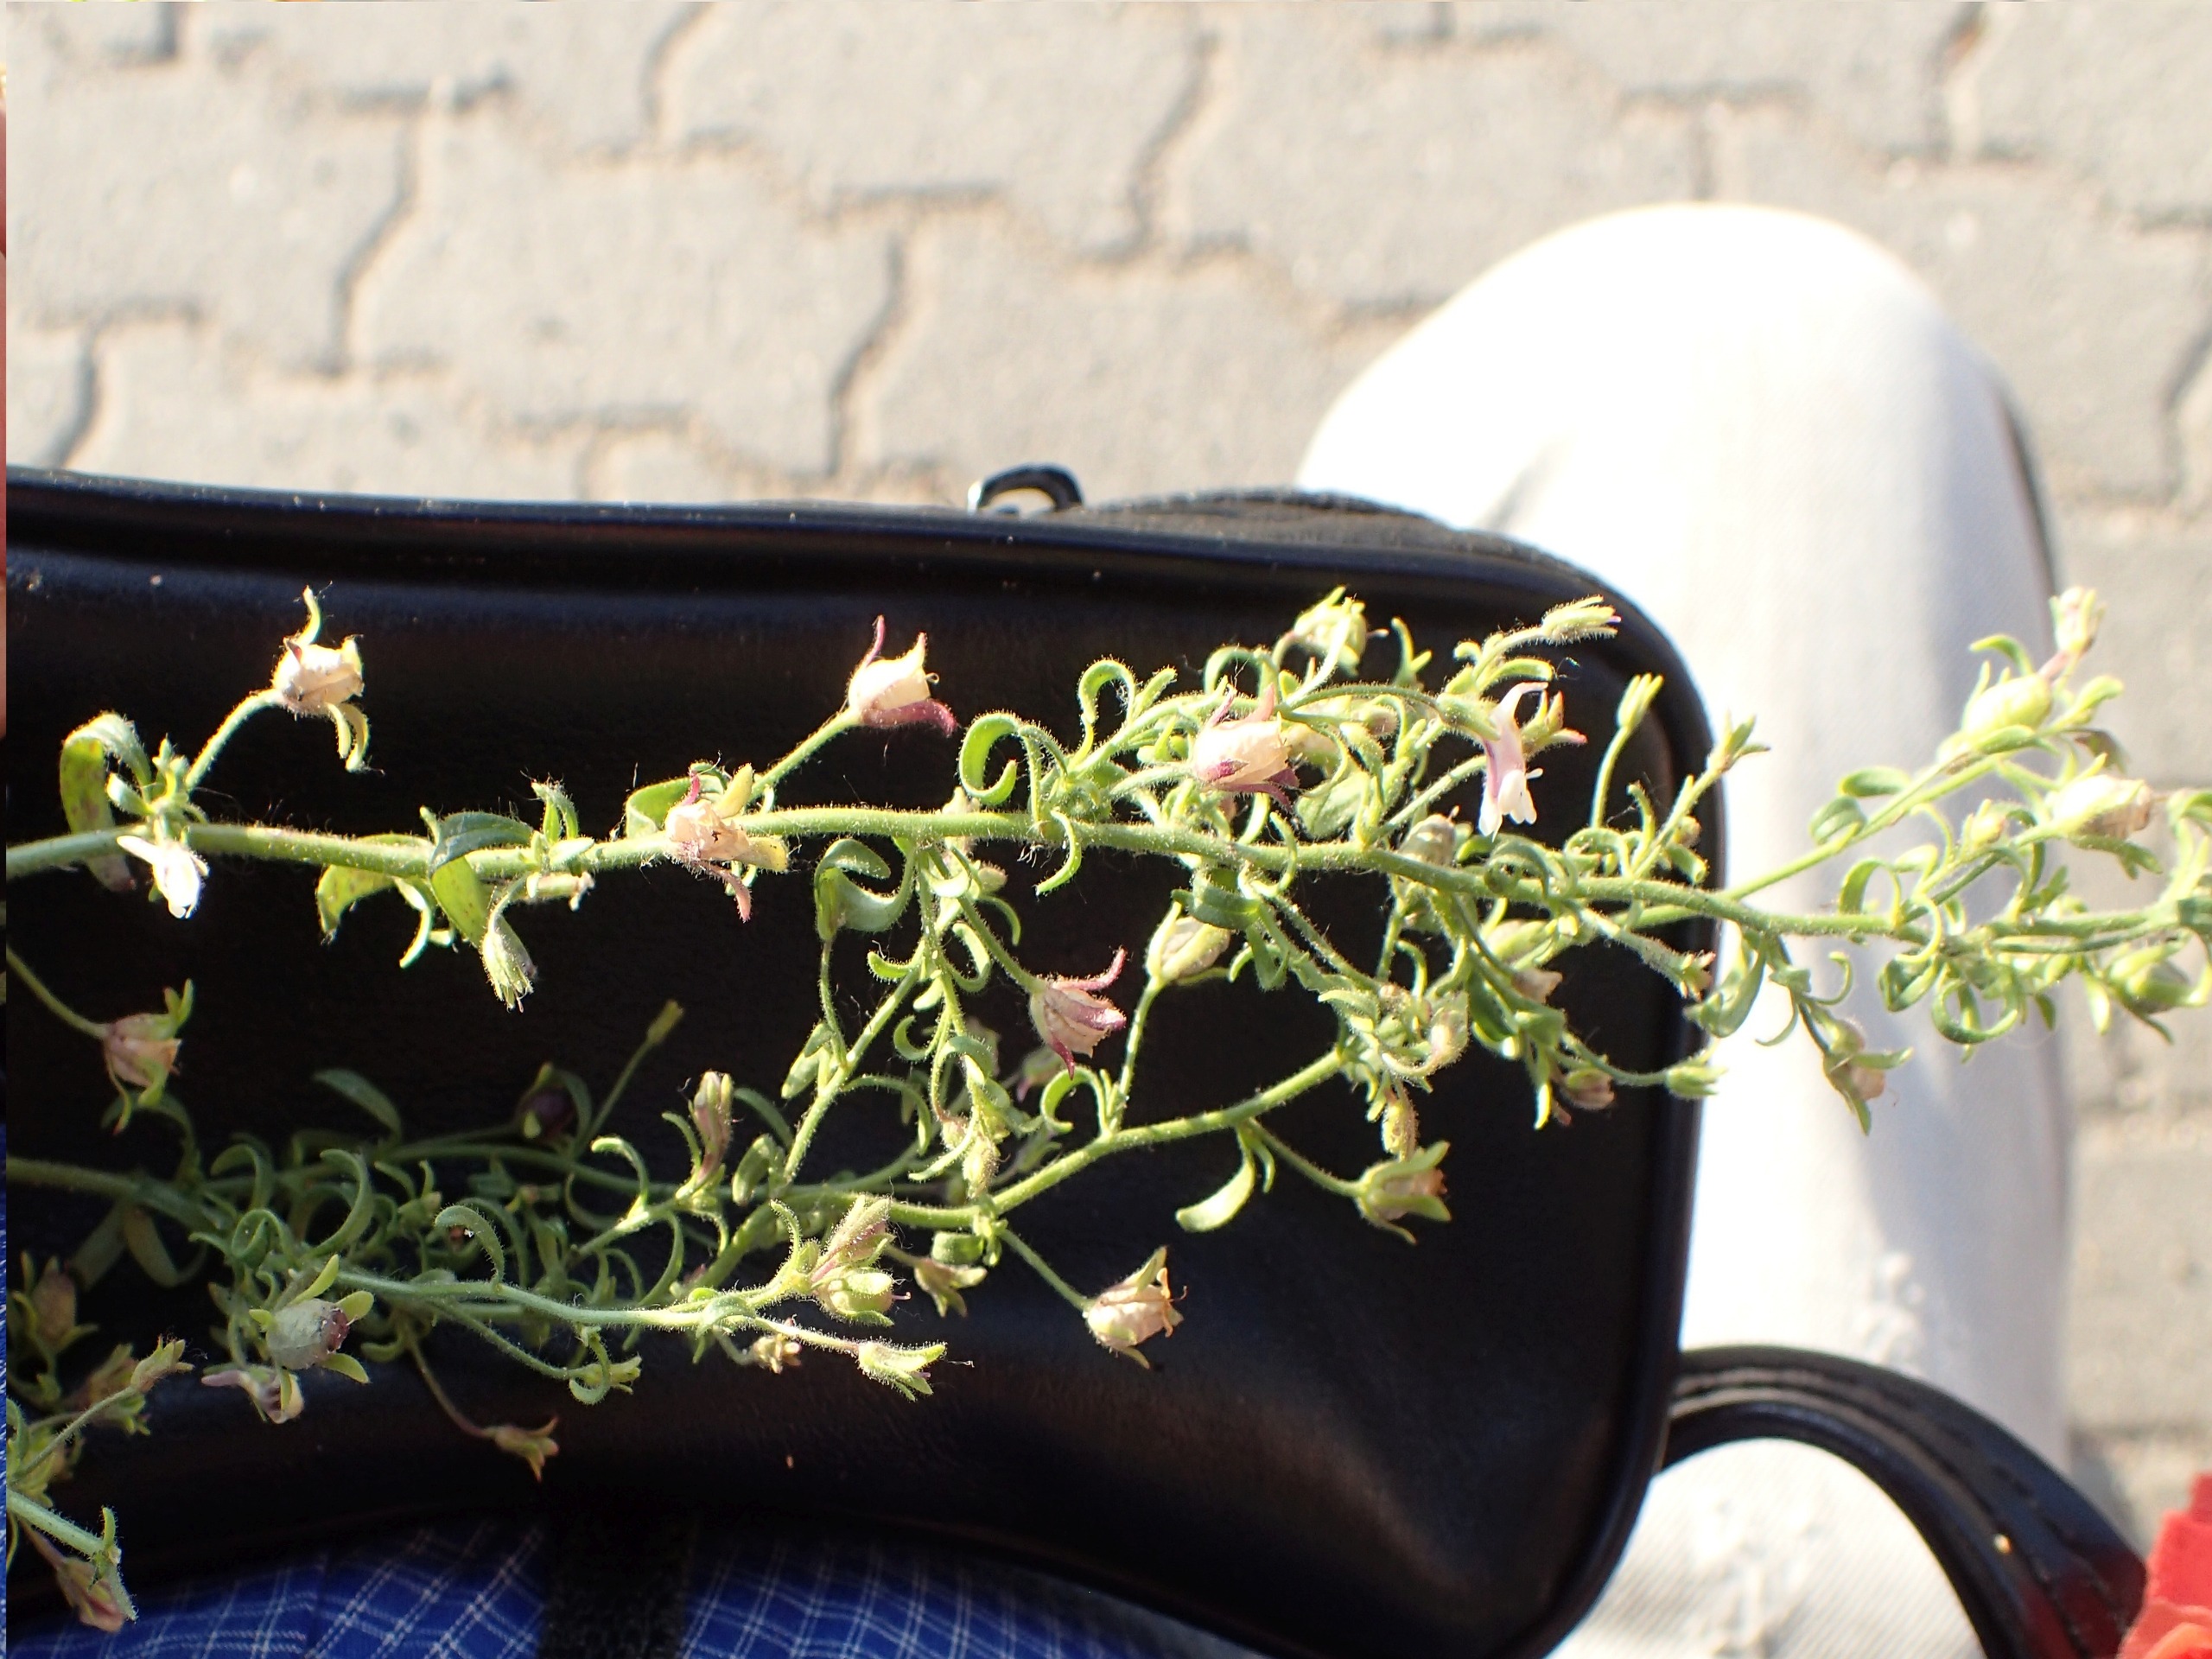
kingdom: Plantae
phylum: Tracheophyta
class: Magnoliopsida
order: Lamiales
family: Plantaginaceae
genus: Chaenorhinum
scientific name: Chaenorhinum minus
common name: Liden torskemund
